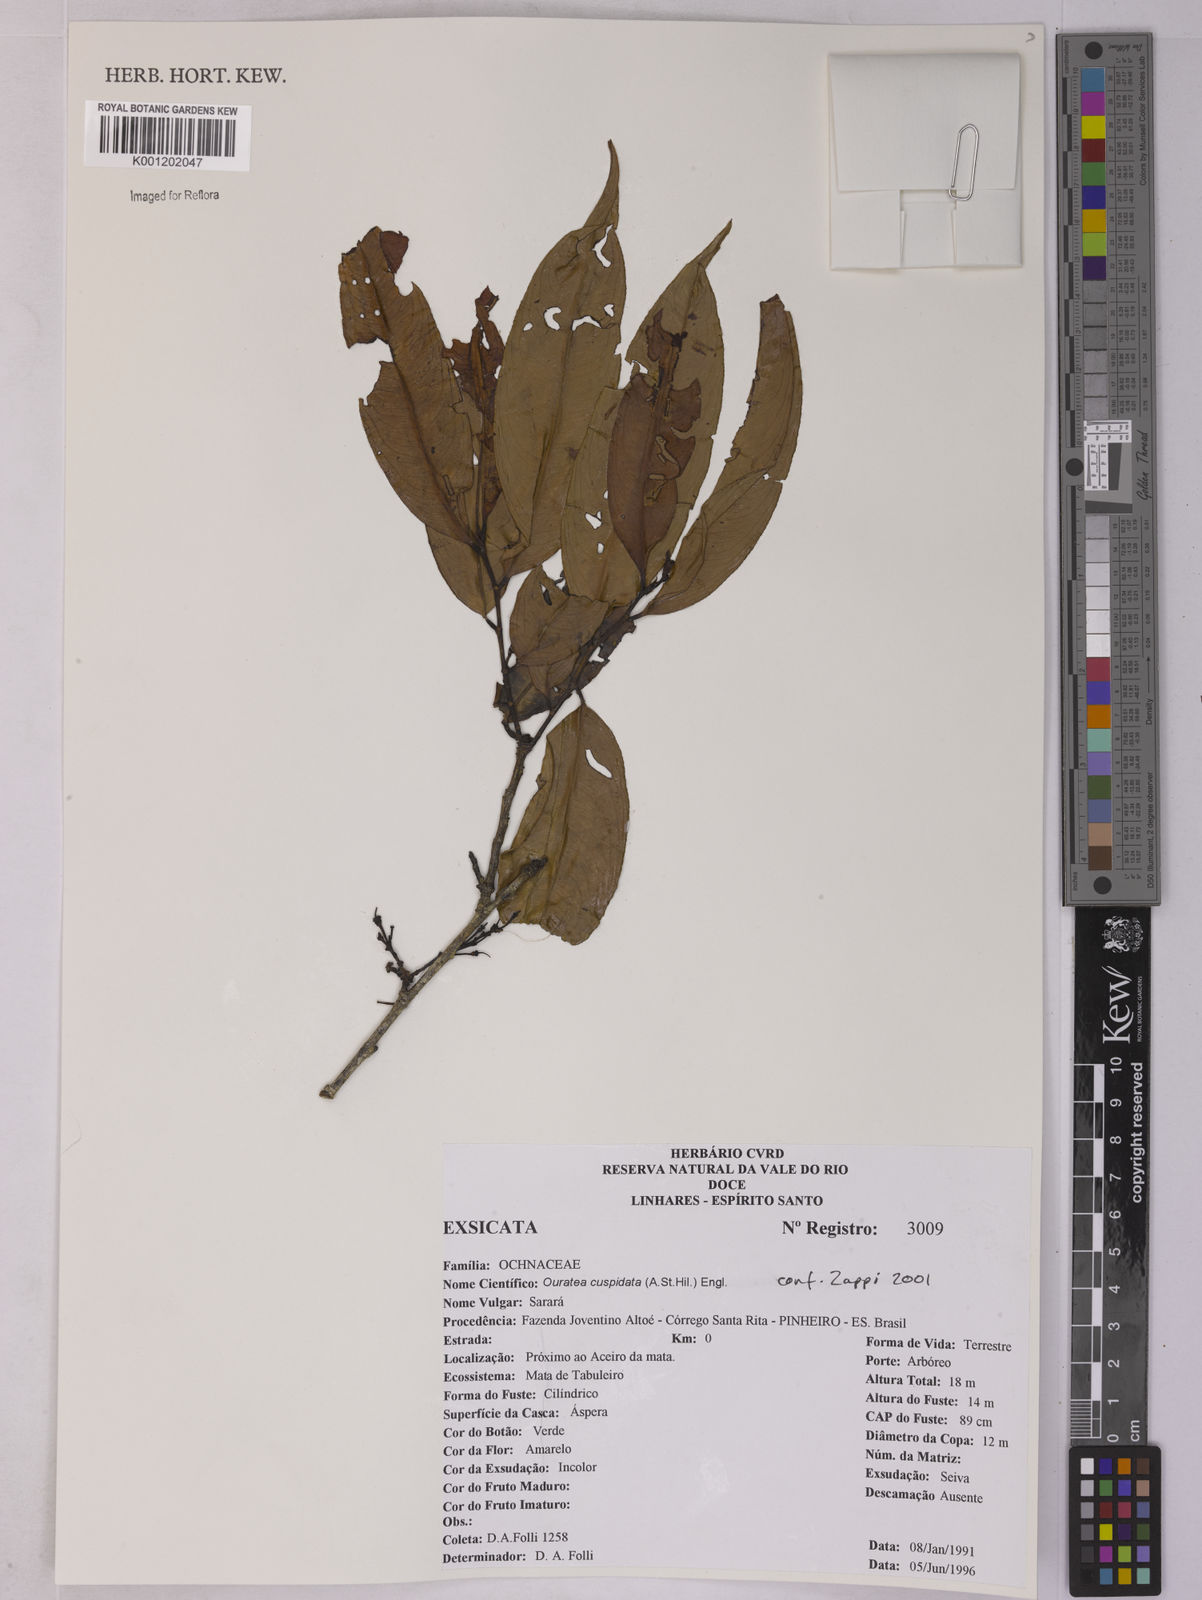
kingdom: Plantae
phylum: Tracheophyta
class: Magnoliopsida
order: Malpighiales
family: Ochnaceae
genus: Ouratea
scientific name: Ouratea cuspidata
